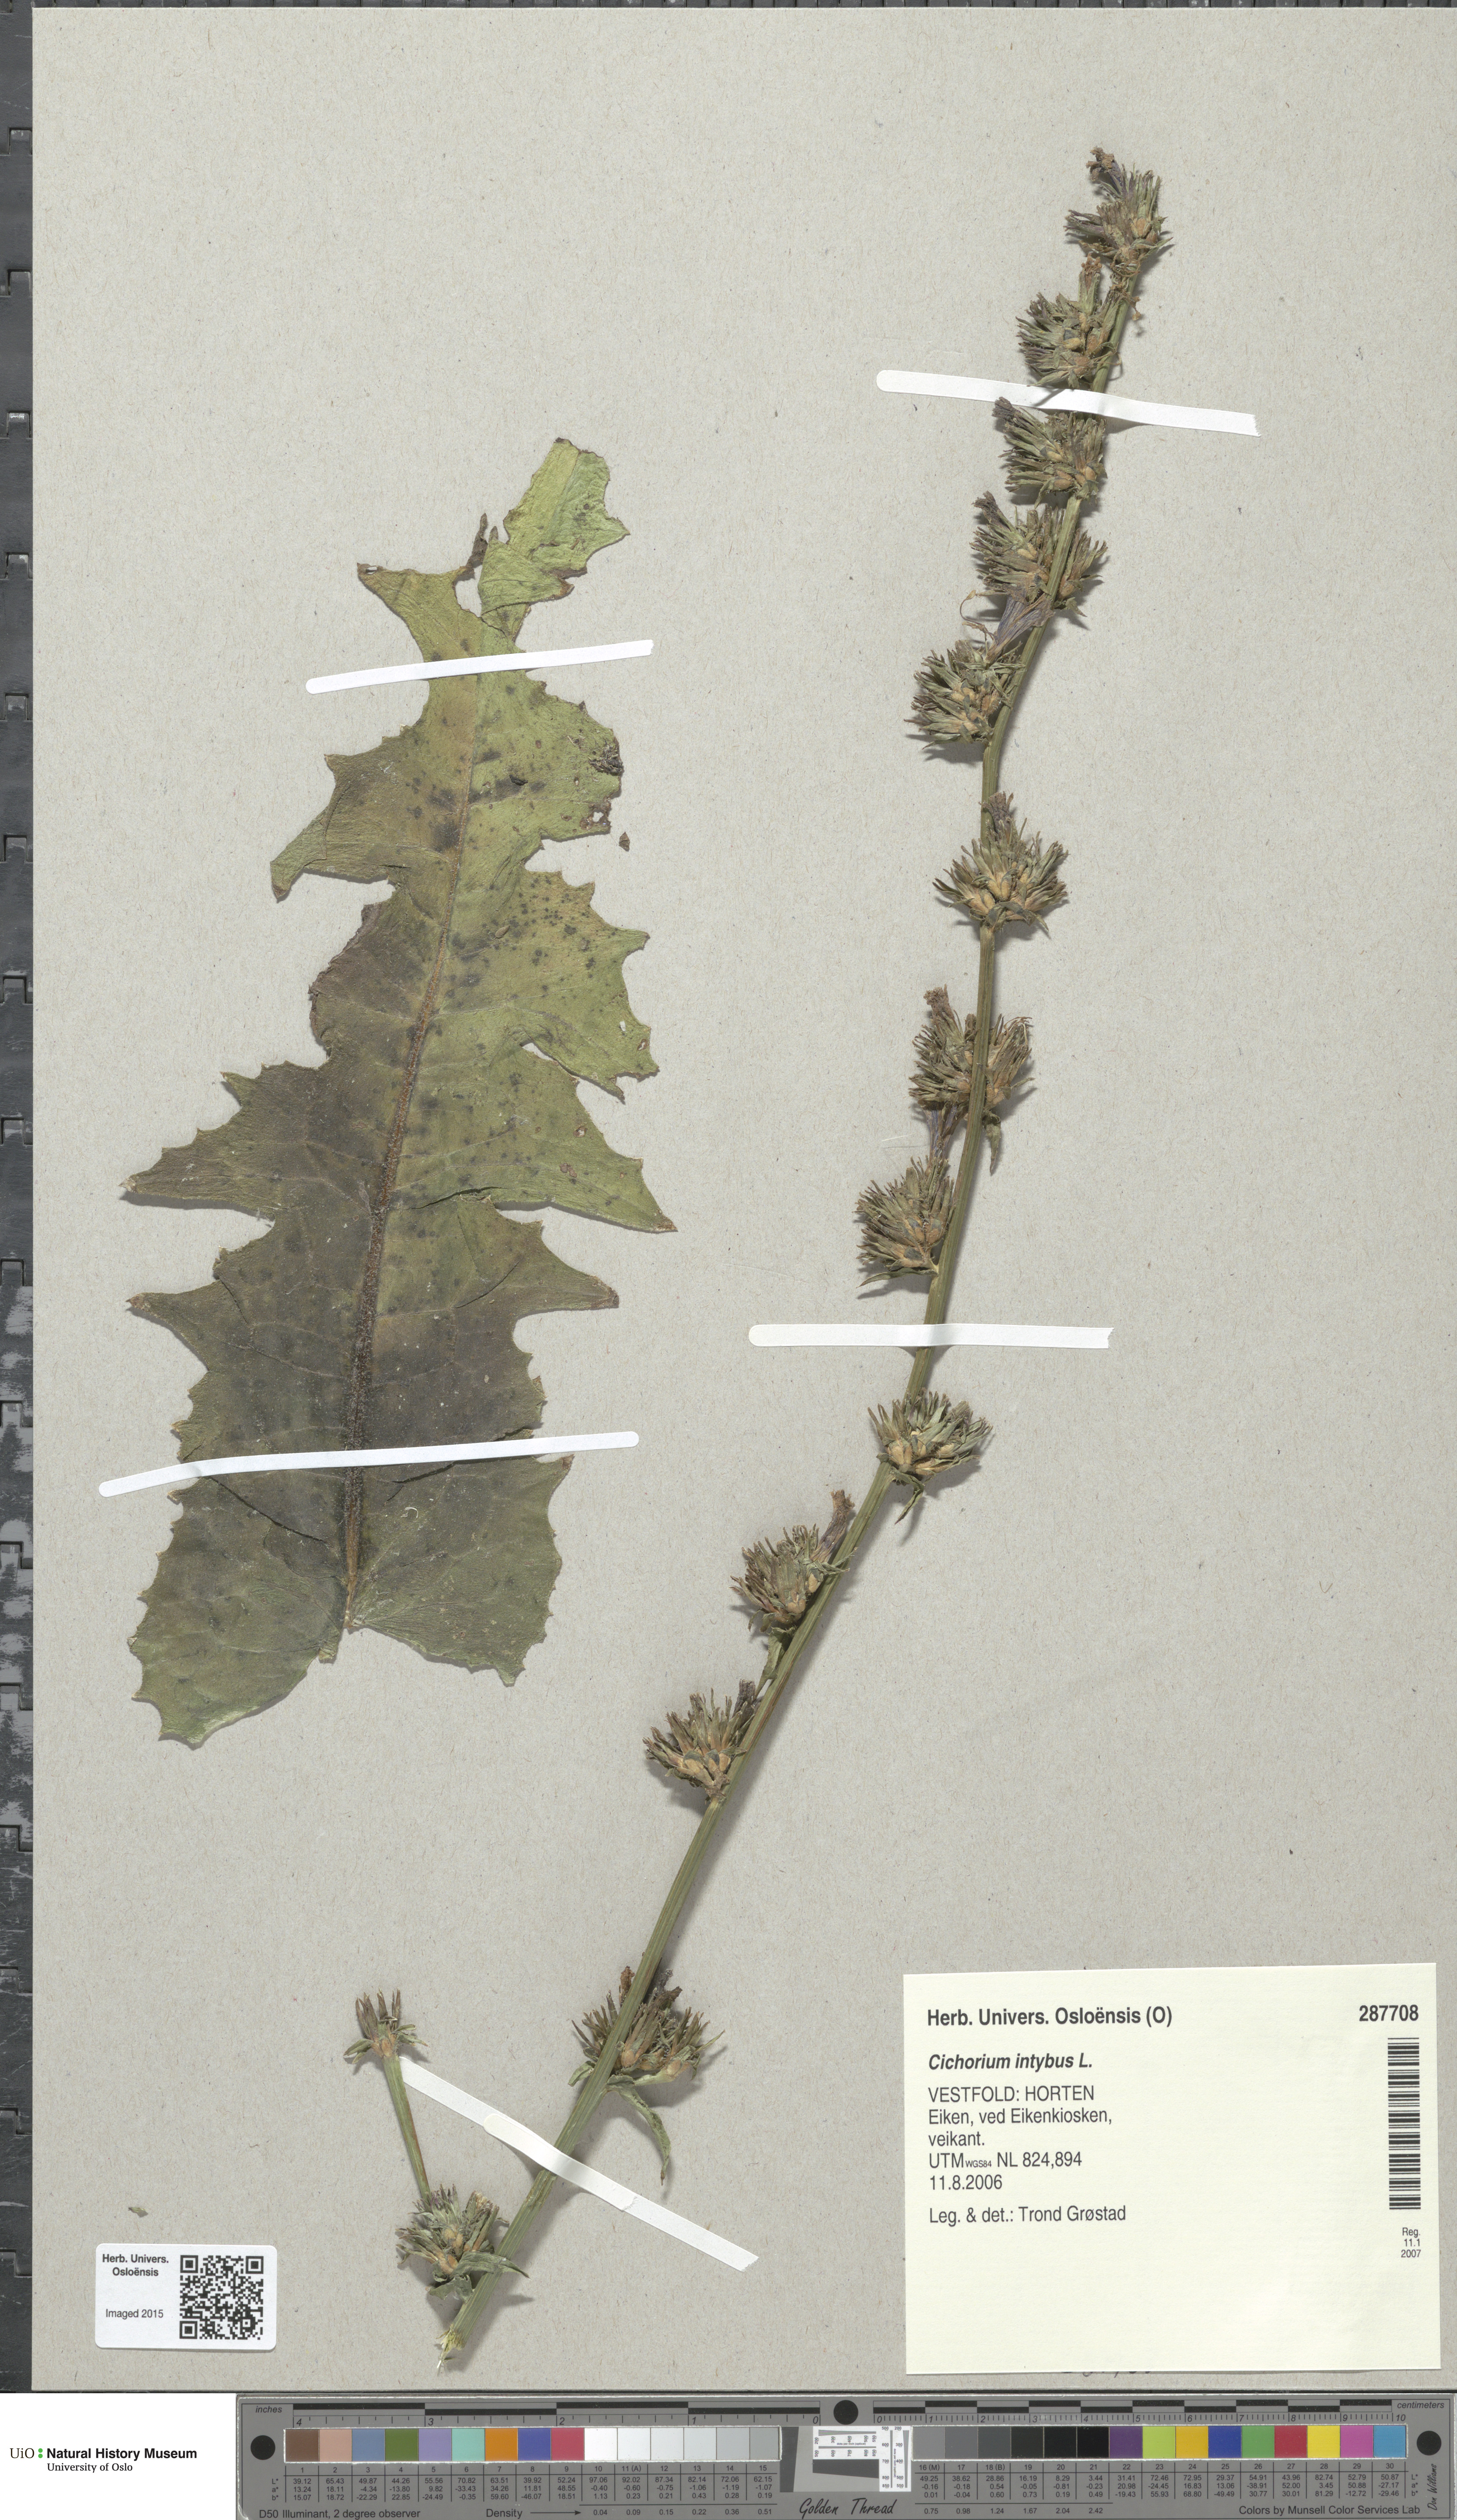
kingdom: Plantae
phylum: Tracheophyta
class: Magnoliopsida
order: Asterales
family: Asteraceae
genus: Cichorium
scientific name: Cichorium intybus
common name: Chicory
